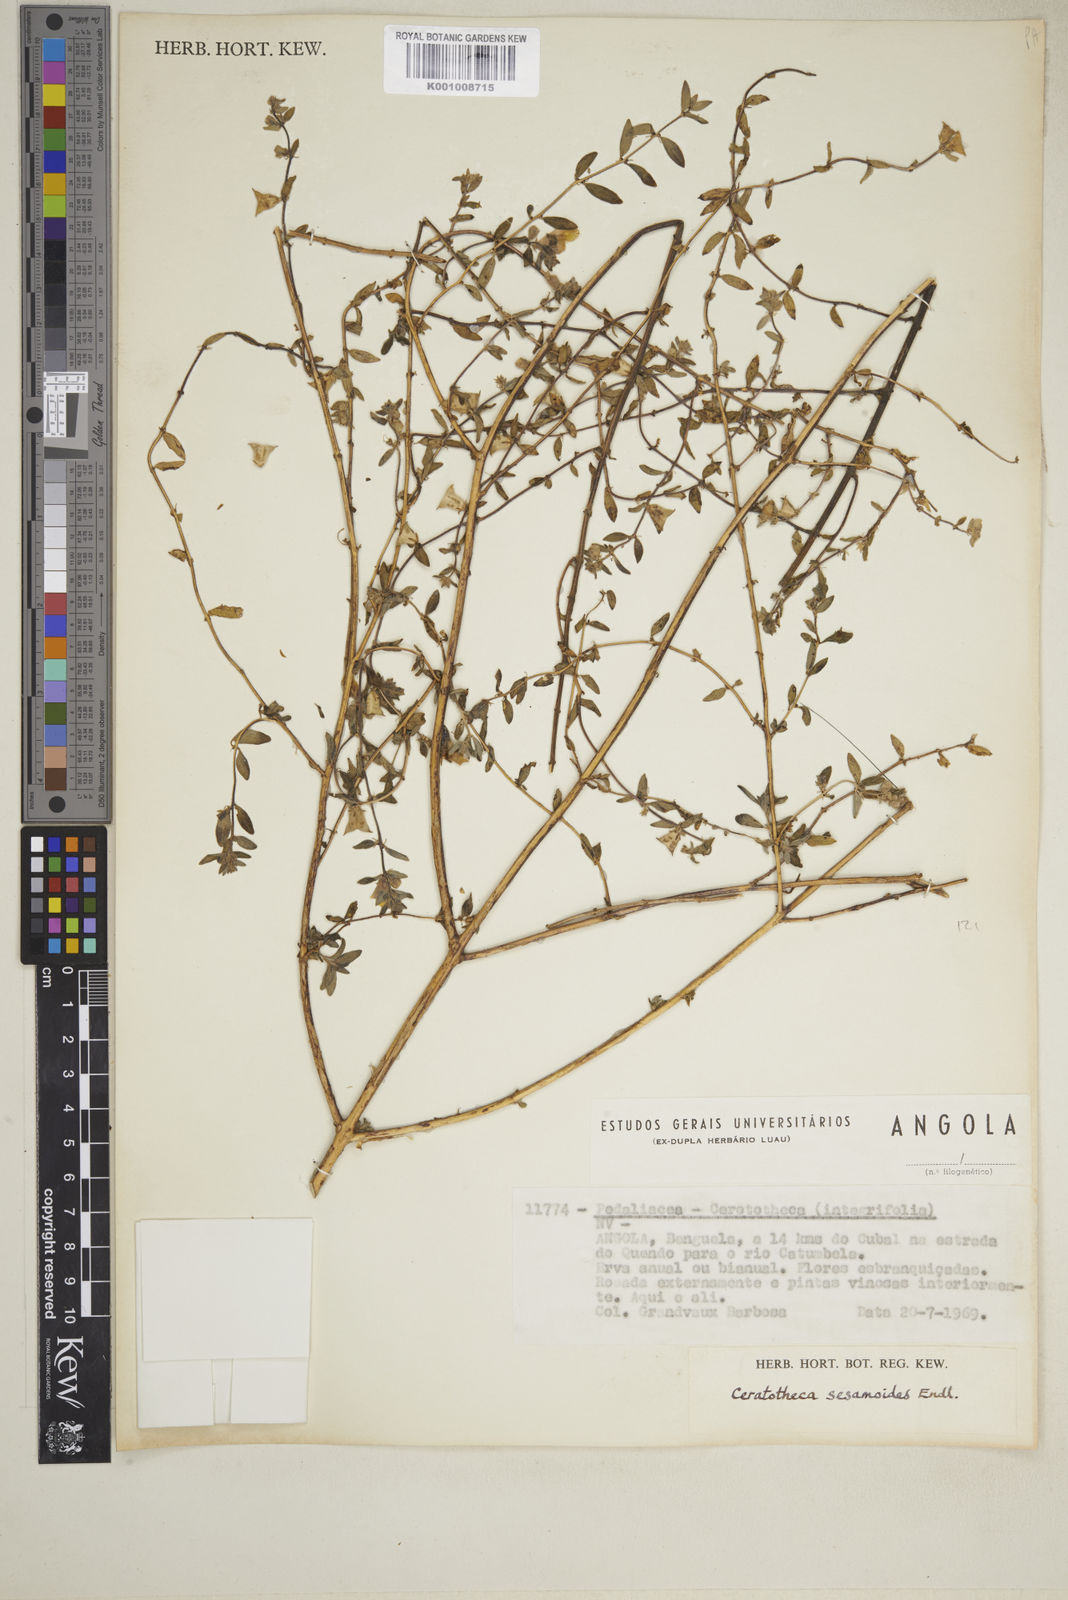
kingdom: Plantae
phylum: Tracheophyta
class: Magnoliopsida
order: Lamiales
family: Pedaliaceae
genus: Sesamum
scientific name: Sesamum sesamoides
